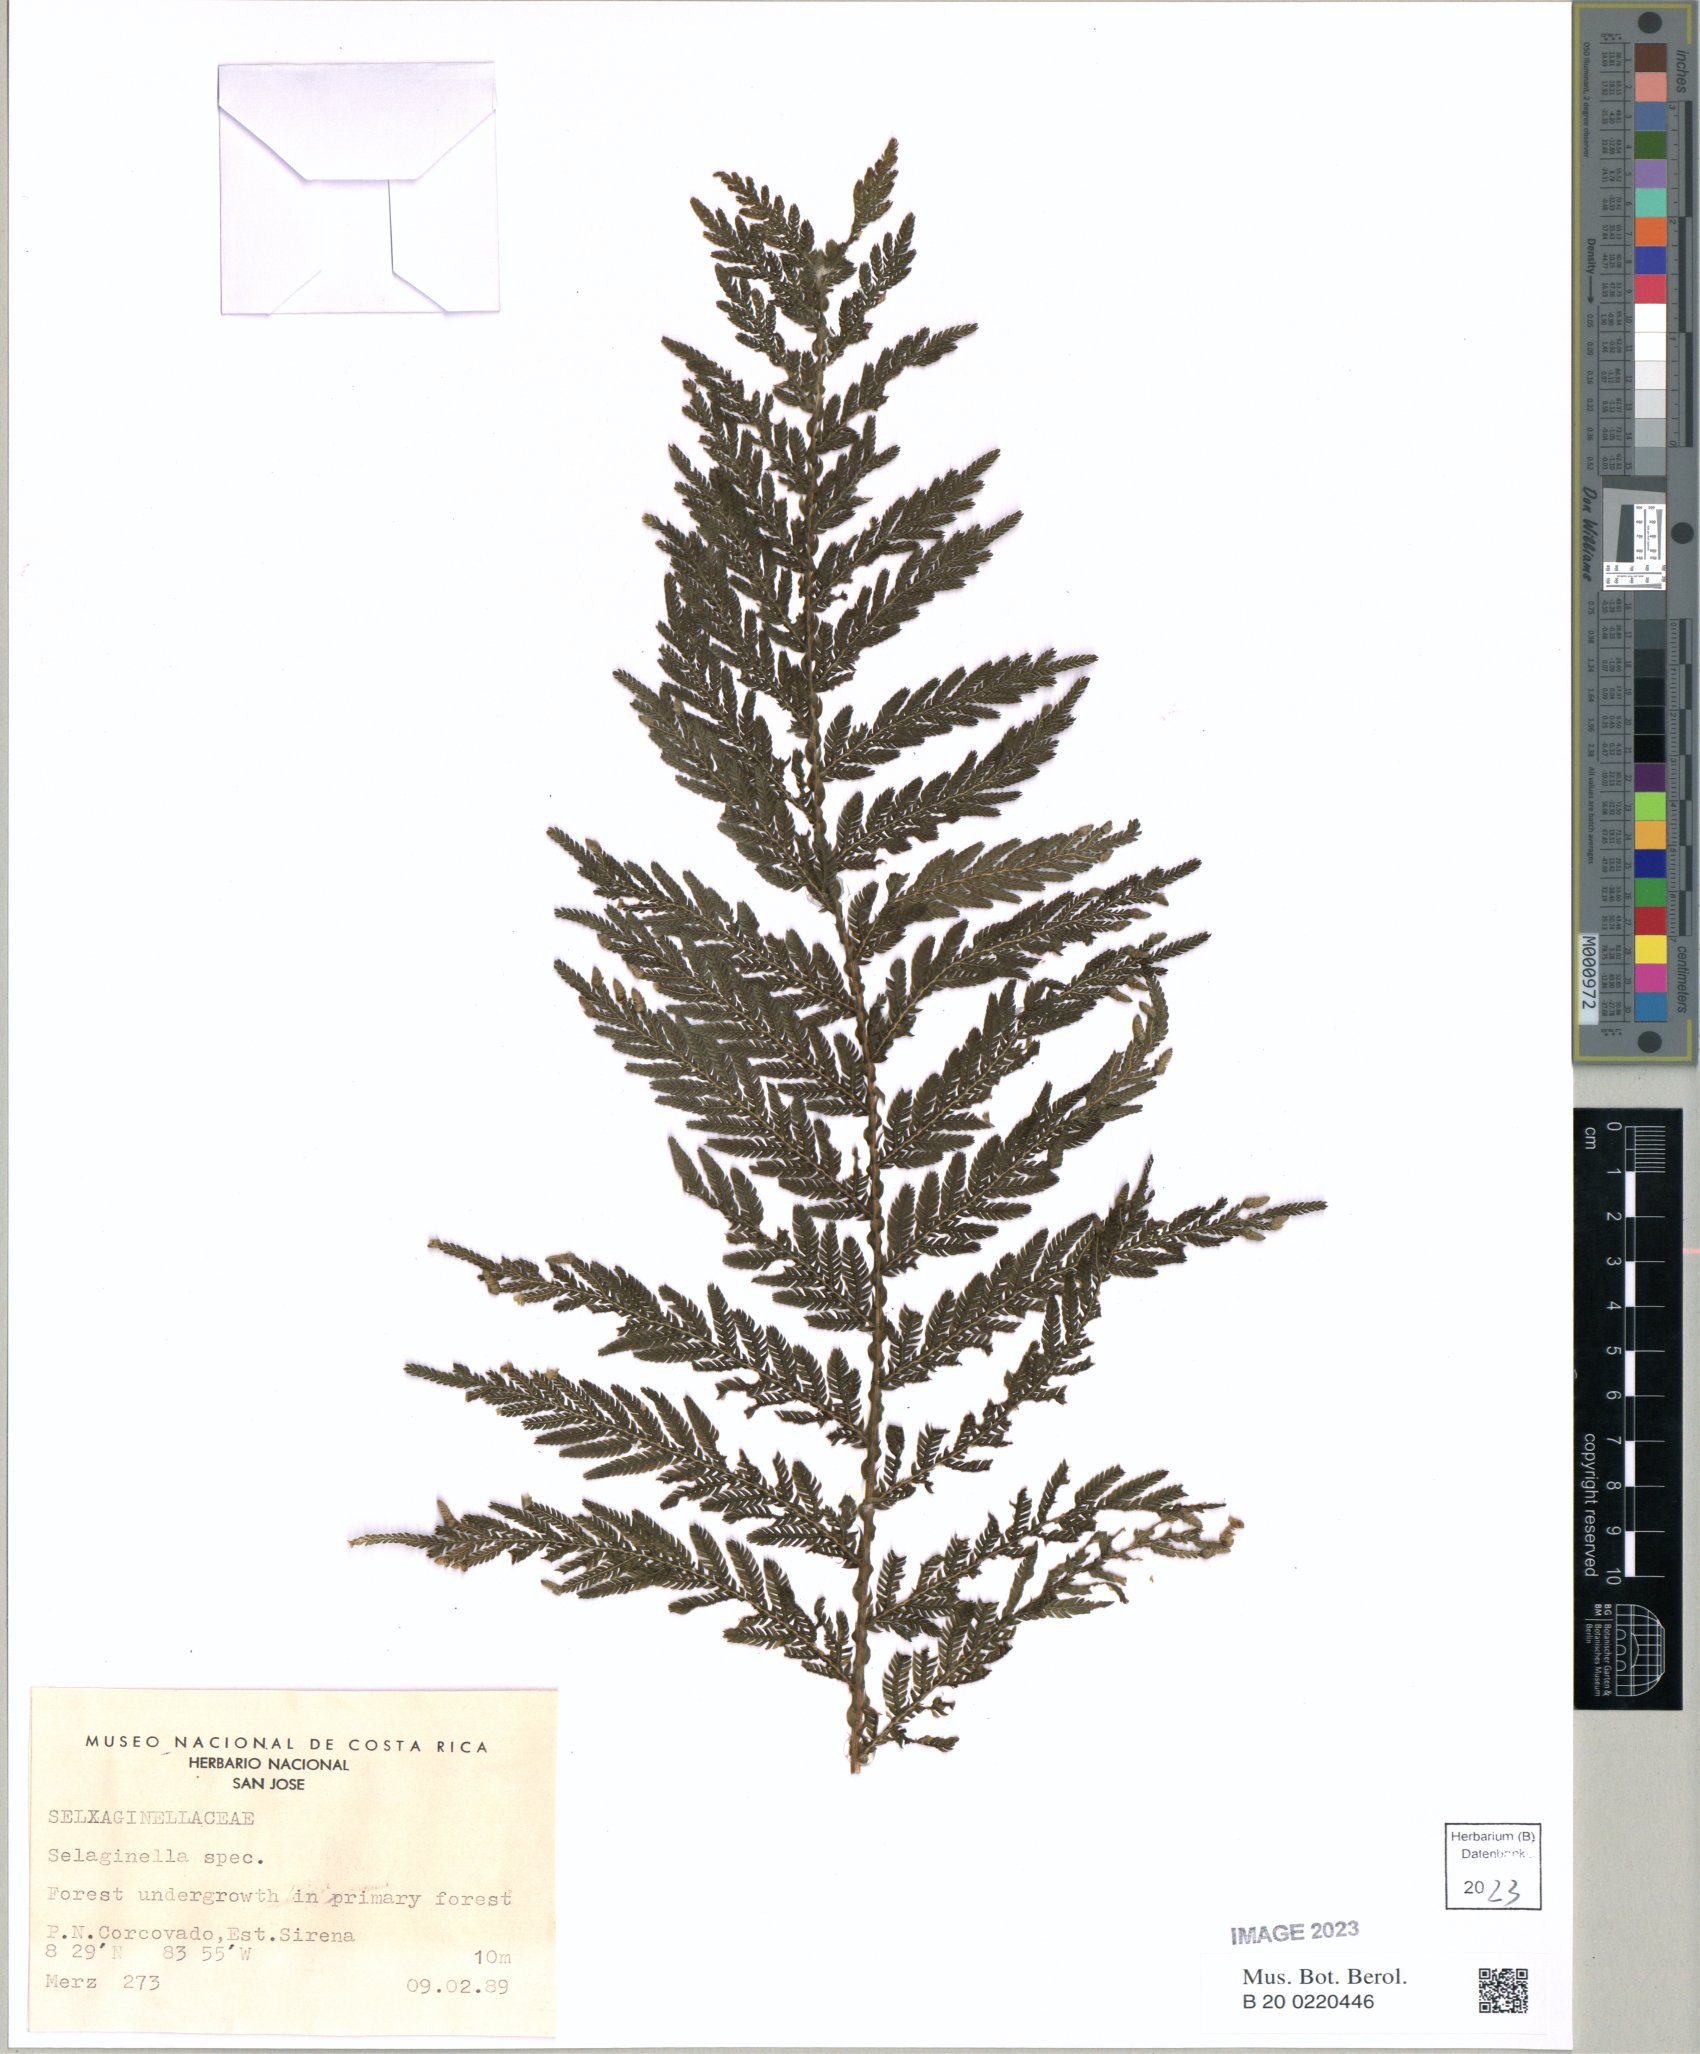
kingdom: Plantae
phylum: Tracheophyta
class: Lycopodiopsida
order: Selaginellales
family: Selaginellaceae
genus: Selaginella
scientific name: Selaginella
